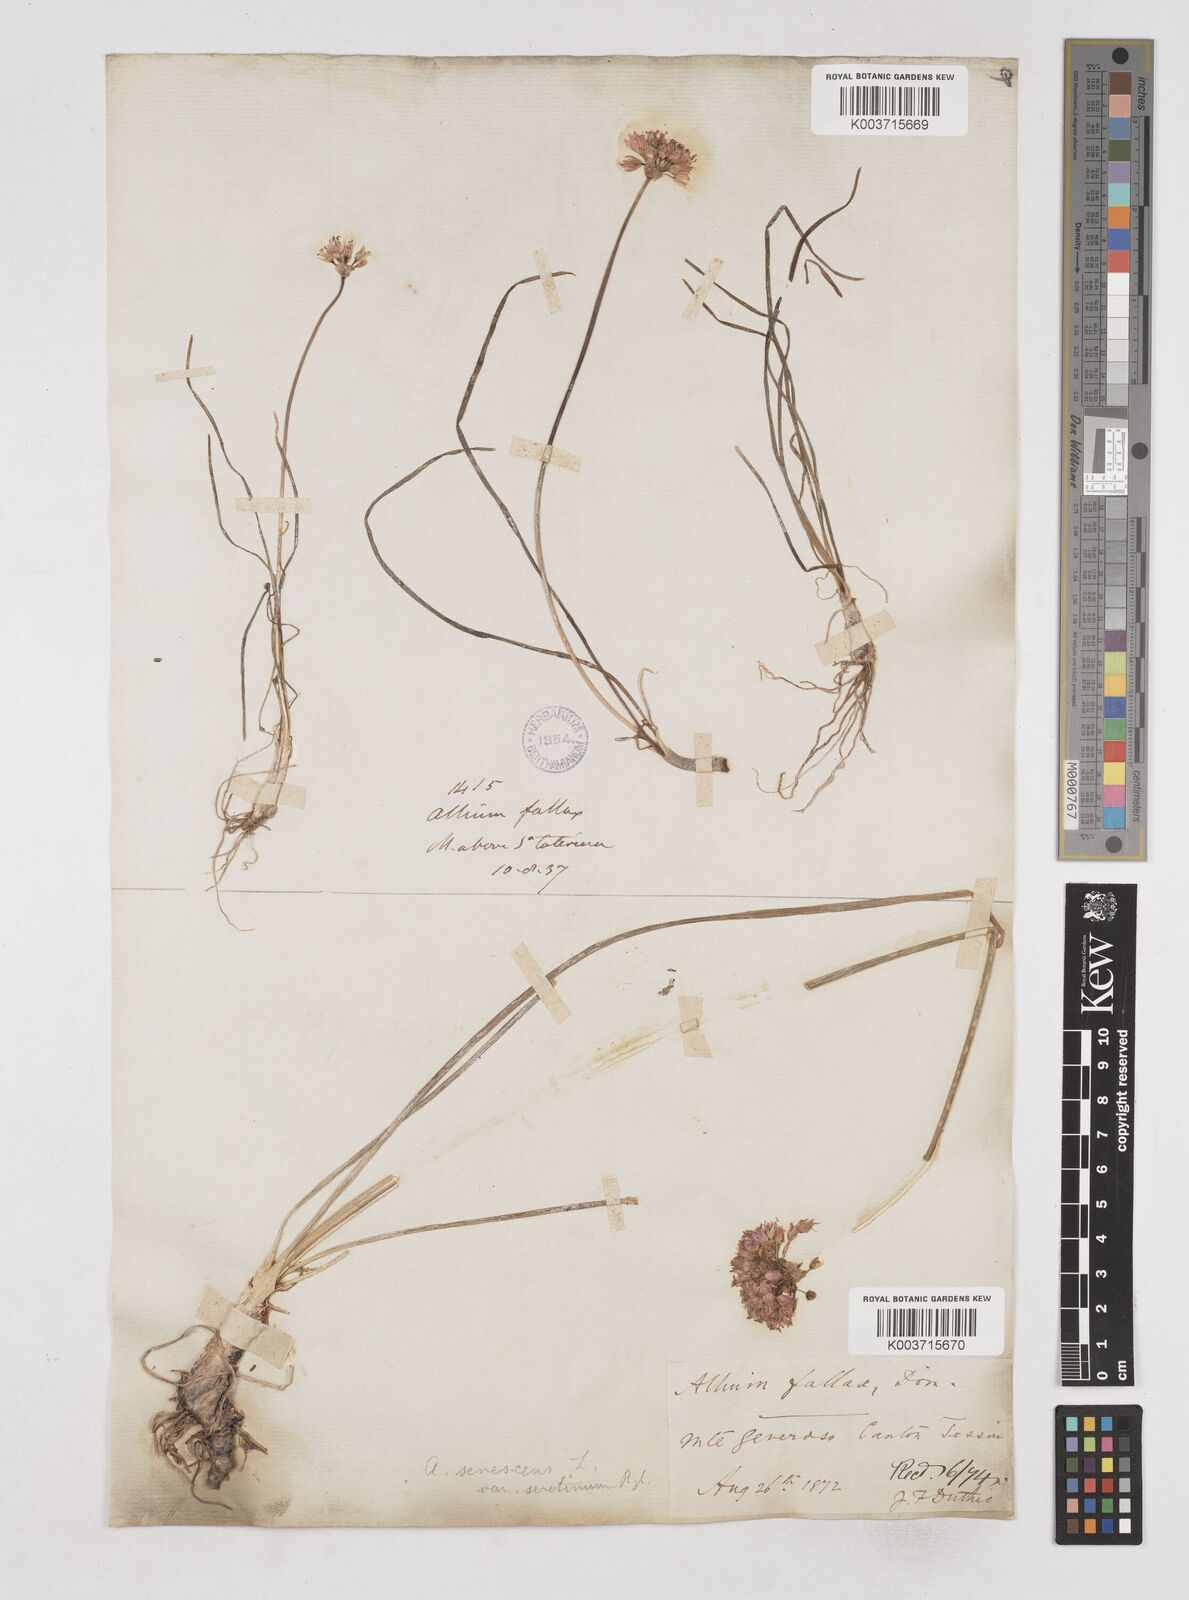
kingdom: Plantae
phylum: Tracheophyta
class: Liliopsida
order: Asparagales
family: Amaryllidaceae
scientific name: Amaryllidaceae
